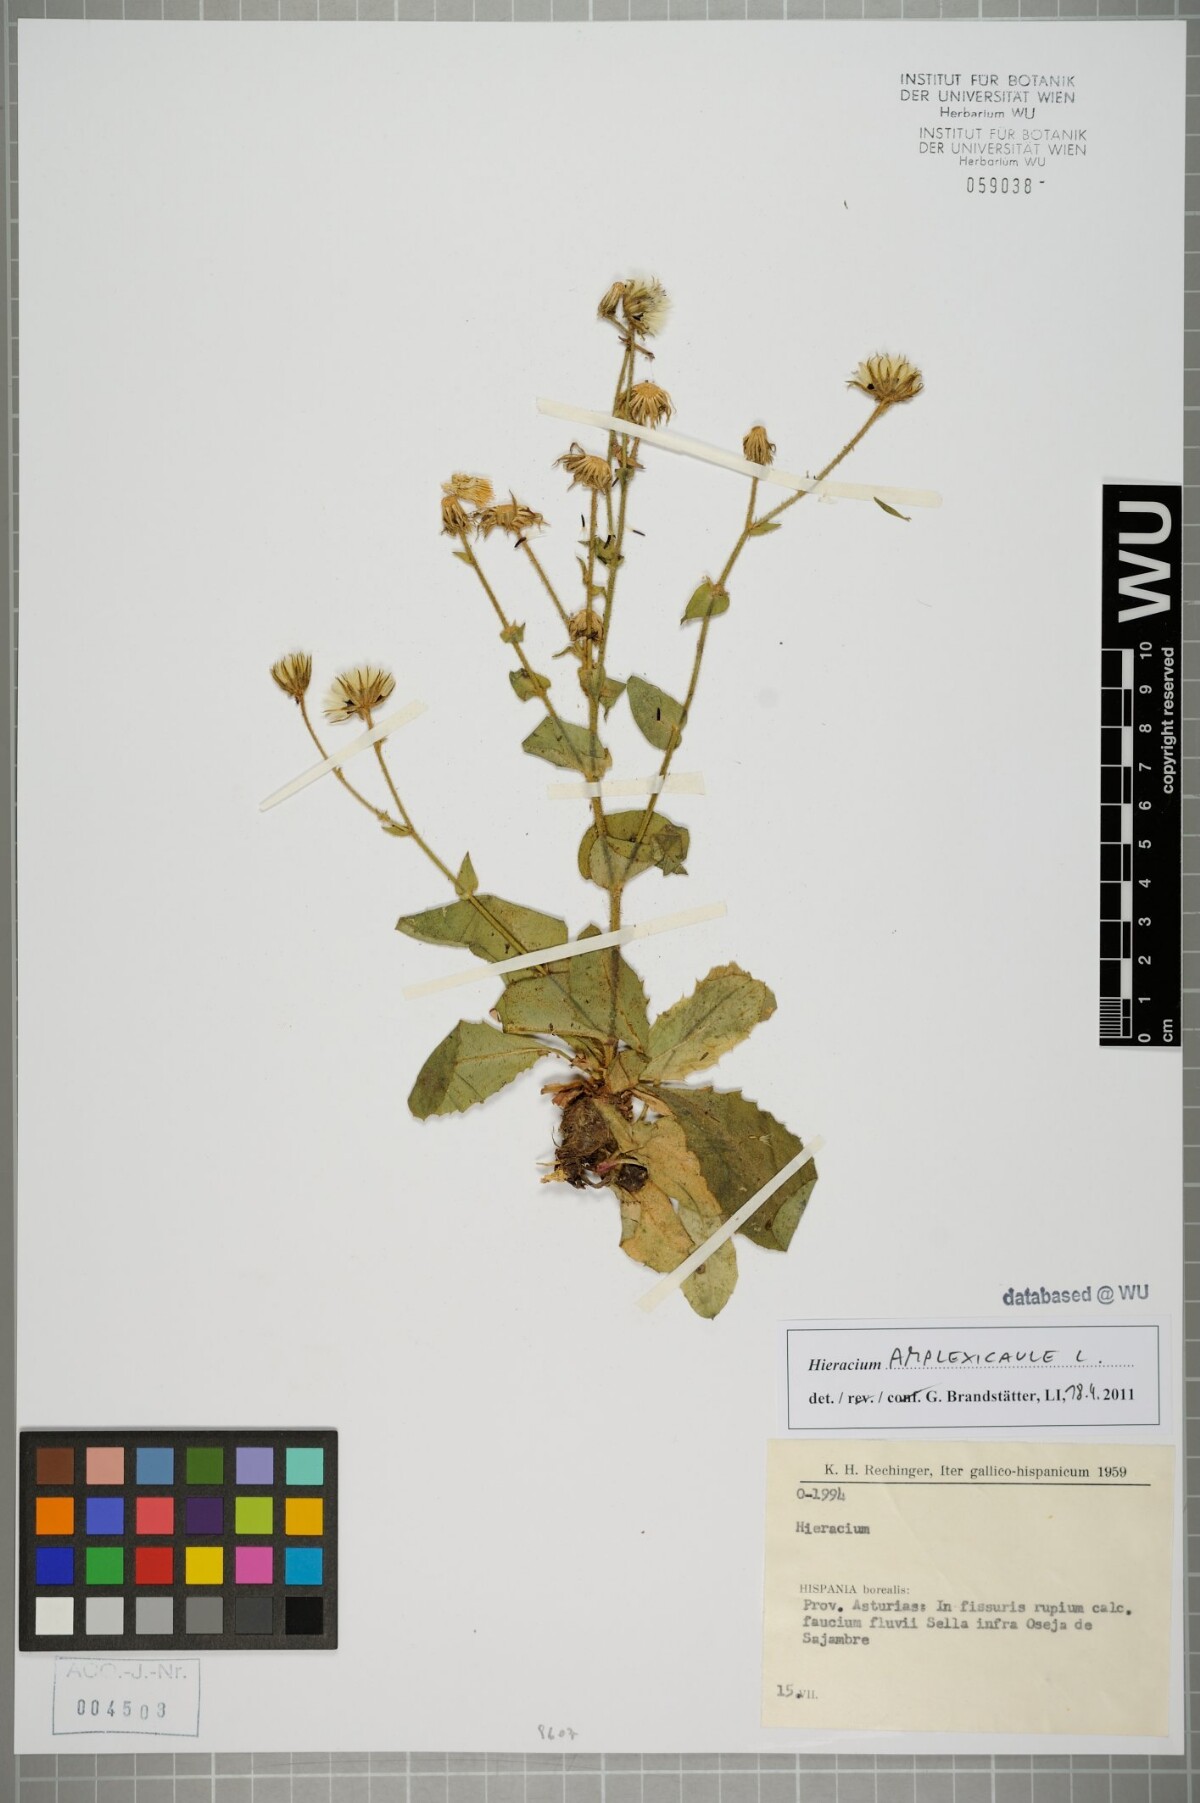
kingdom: Plantae
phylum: Tracheophyta
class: Magnoliopsida
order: Asterales
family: Asteraceae
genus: Hieracium
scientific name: Hieracium amplexicaule
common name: Sticky hawkweed
